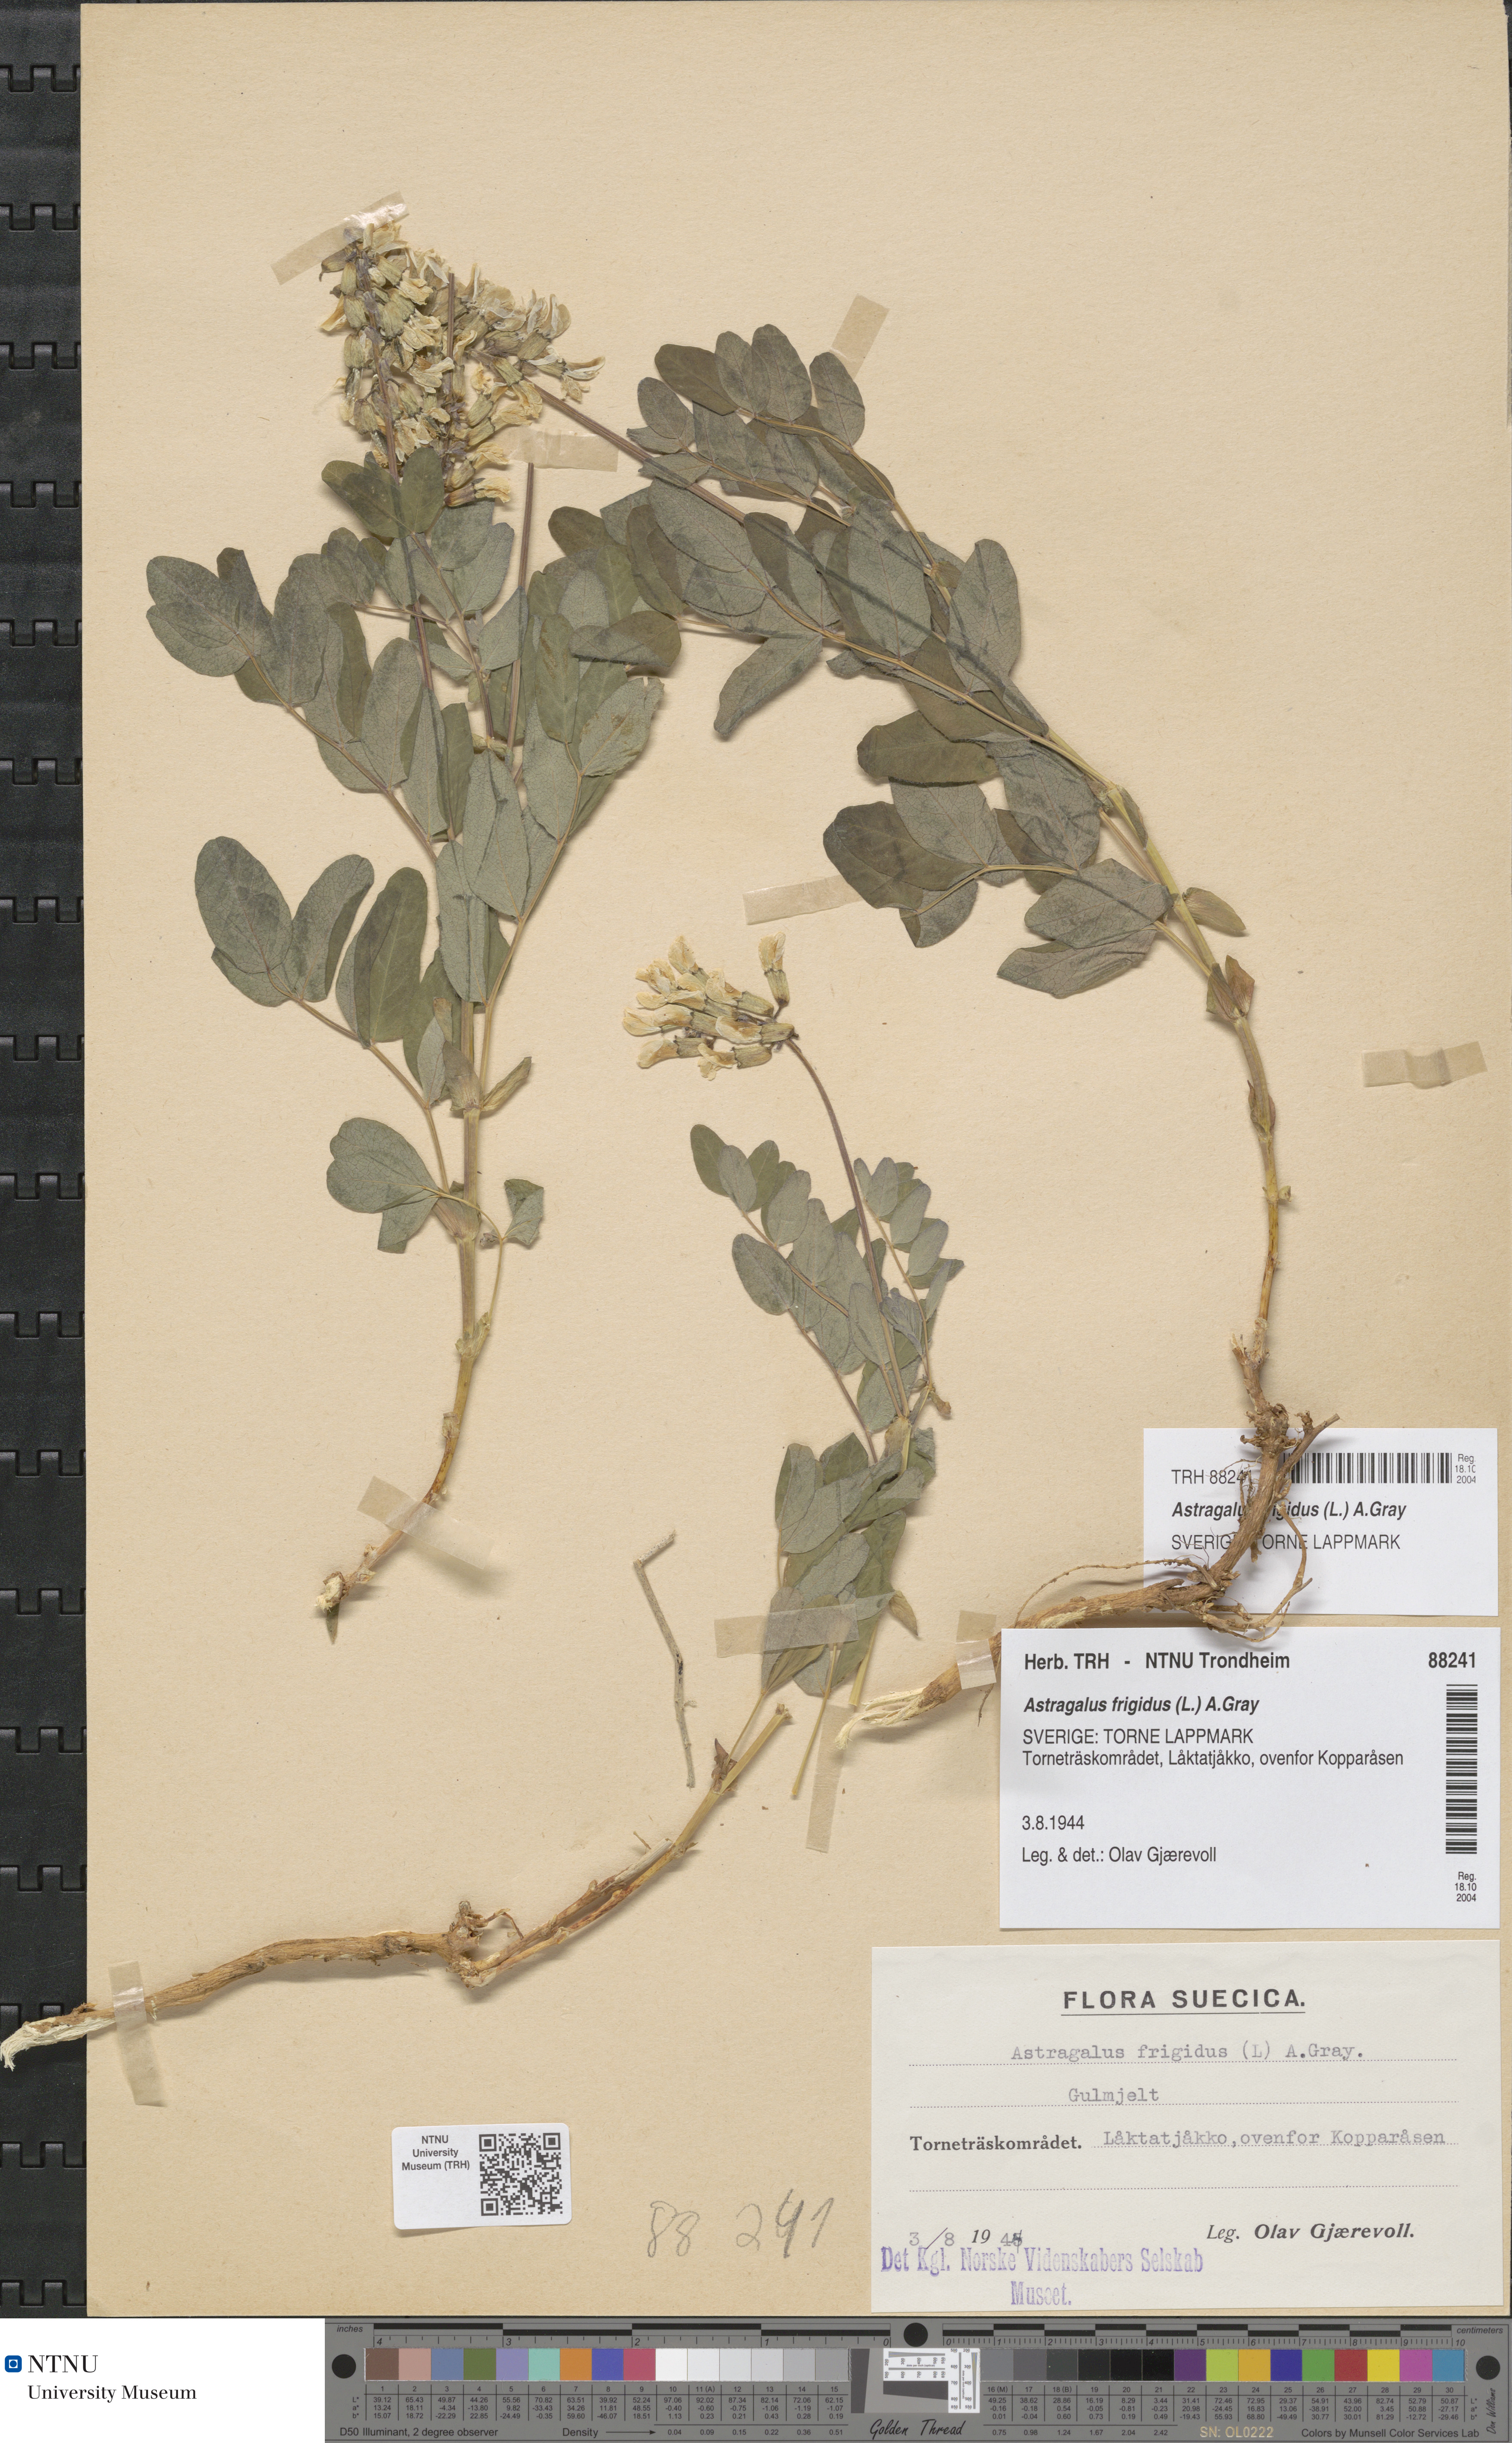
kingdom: Plantae
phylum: Tracheophyta
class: Magnoliopsida
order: Fabales
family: Fabaceae
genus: Astragalus
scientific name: Astragalus frigidus
